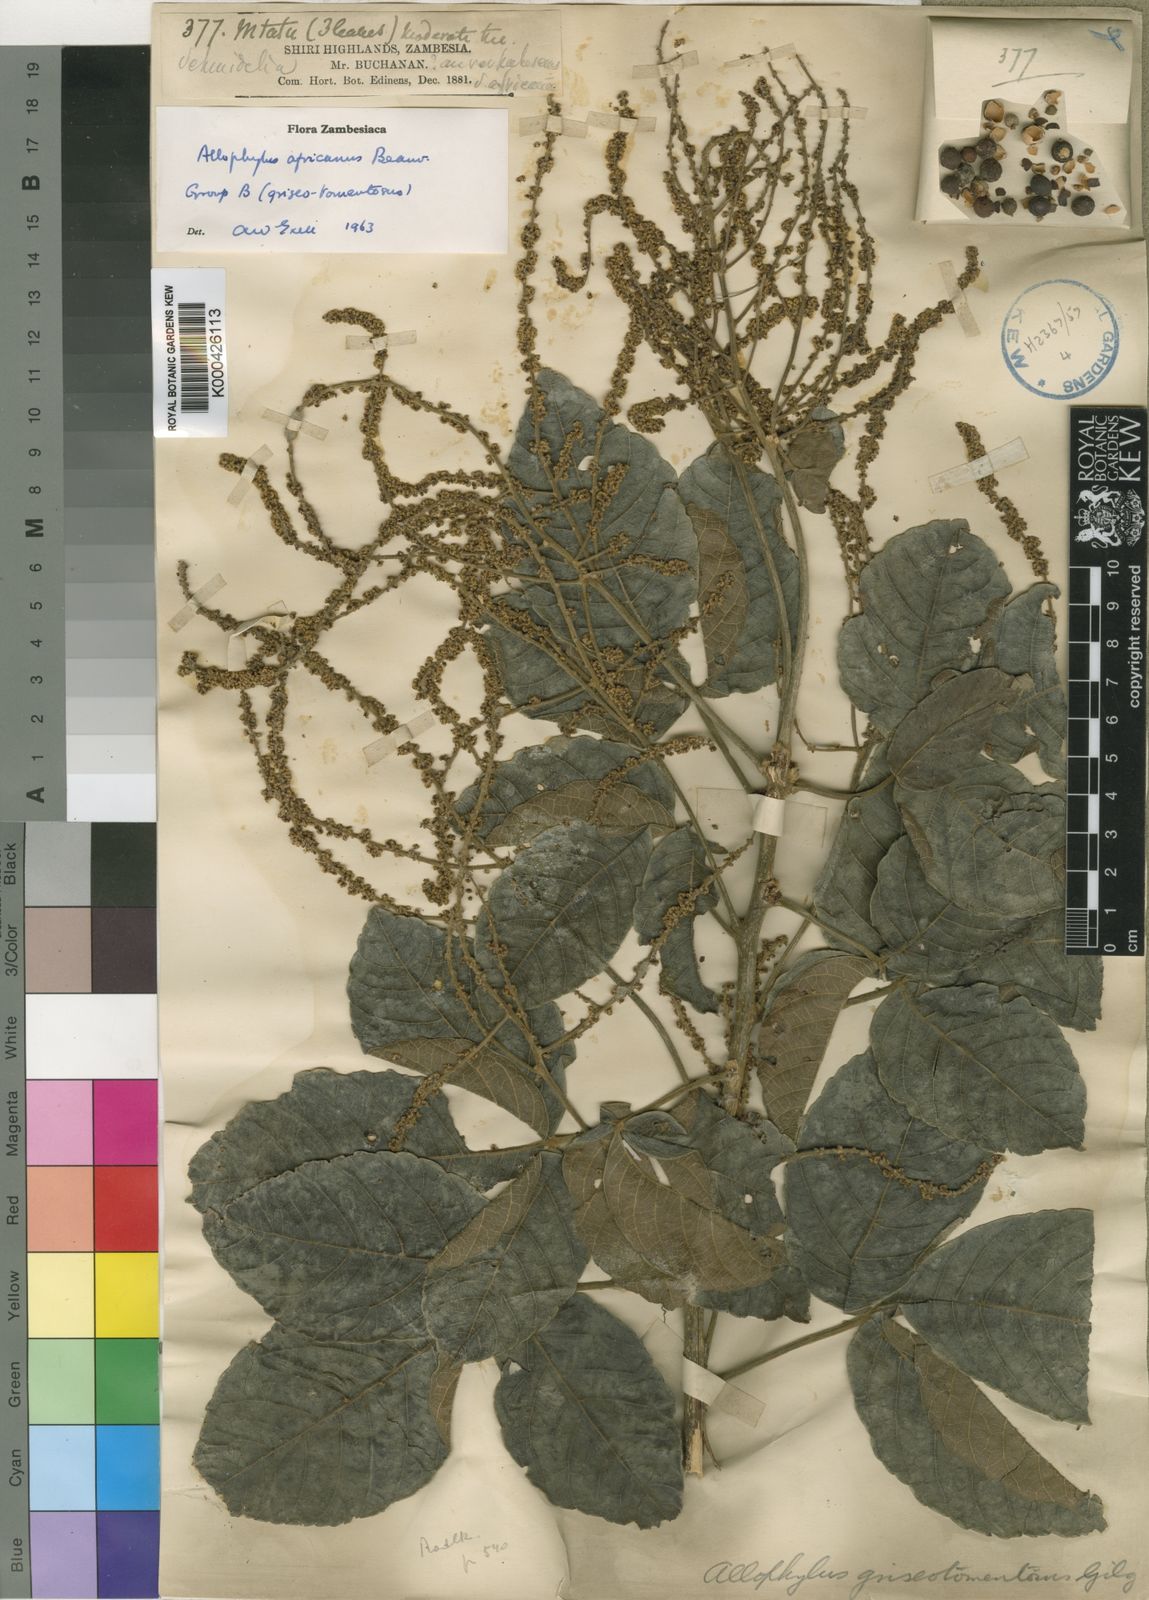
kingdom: Plantae
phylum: Tracheophyta
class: Magnoliopsida
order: Sapindales
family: Sapindaceae
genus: Allophylus
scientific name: Allophylus africanus
